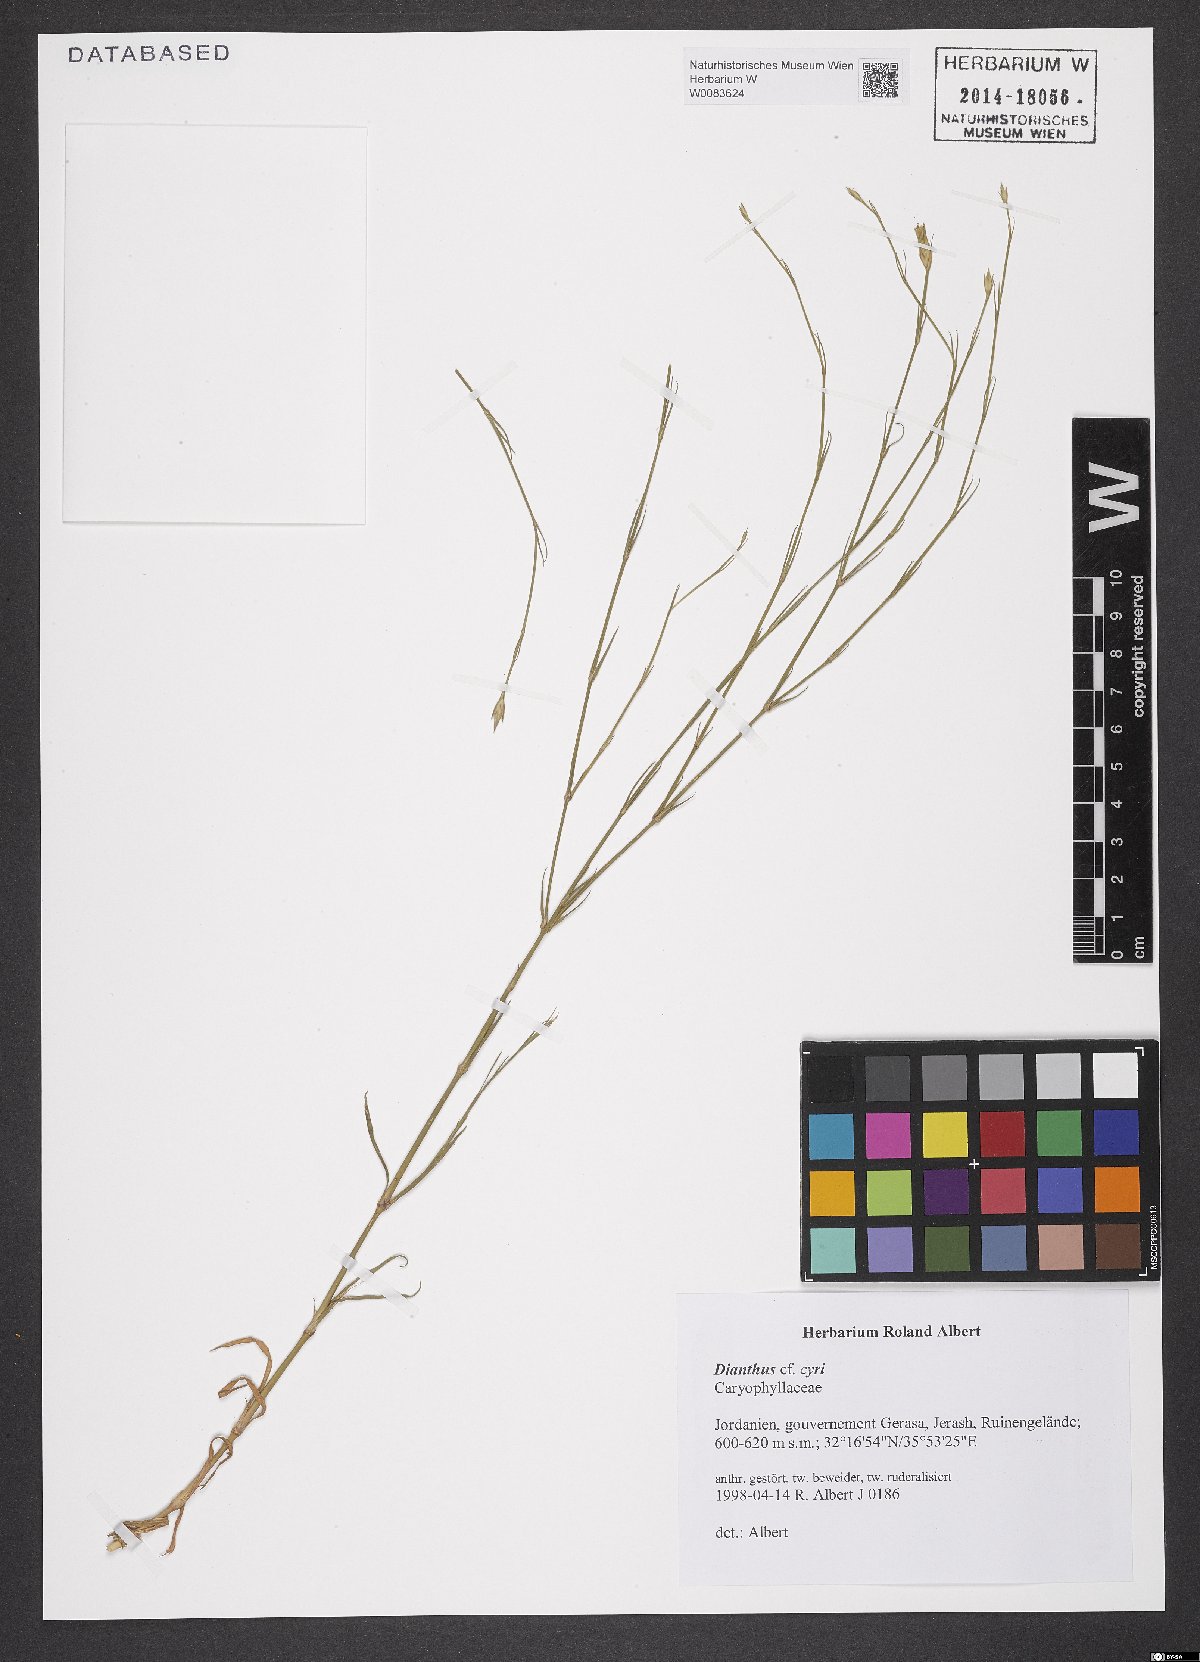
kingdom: Plantae
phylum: Tracheophyta
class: Magnoliopsida
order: Caryophyllales
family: Caryophyllaceae
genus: Dianthus
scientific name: Dianthus cyri
